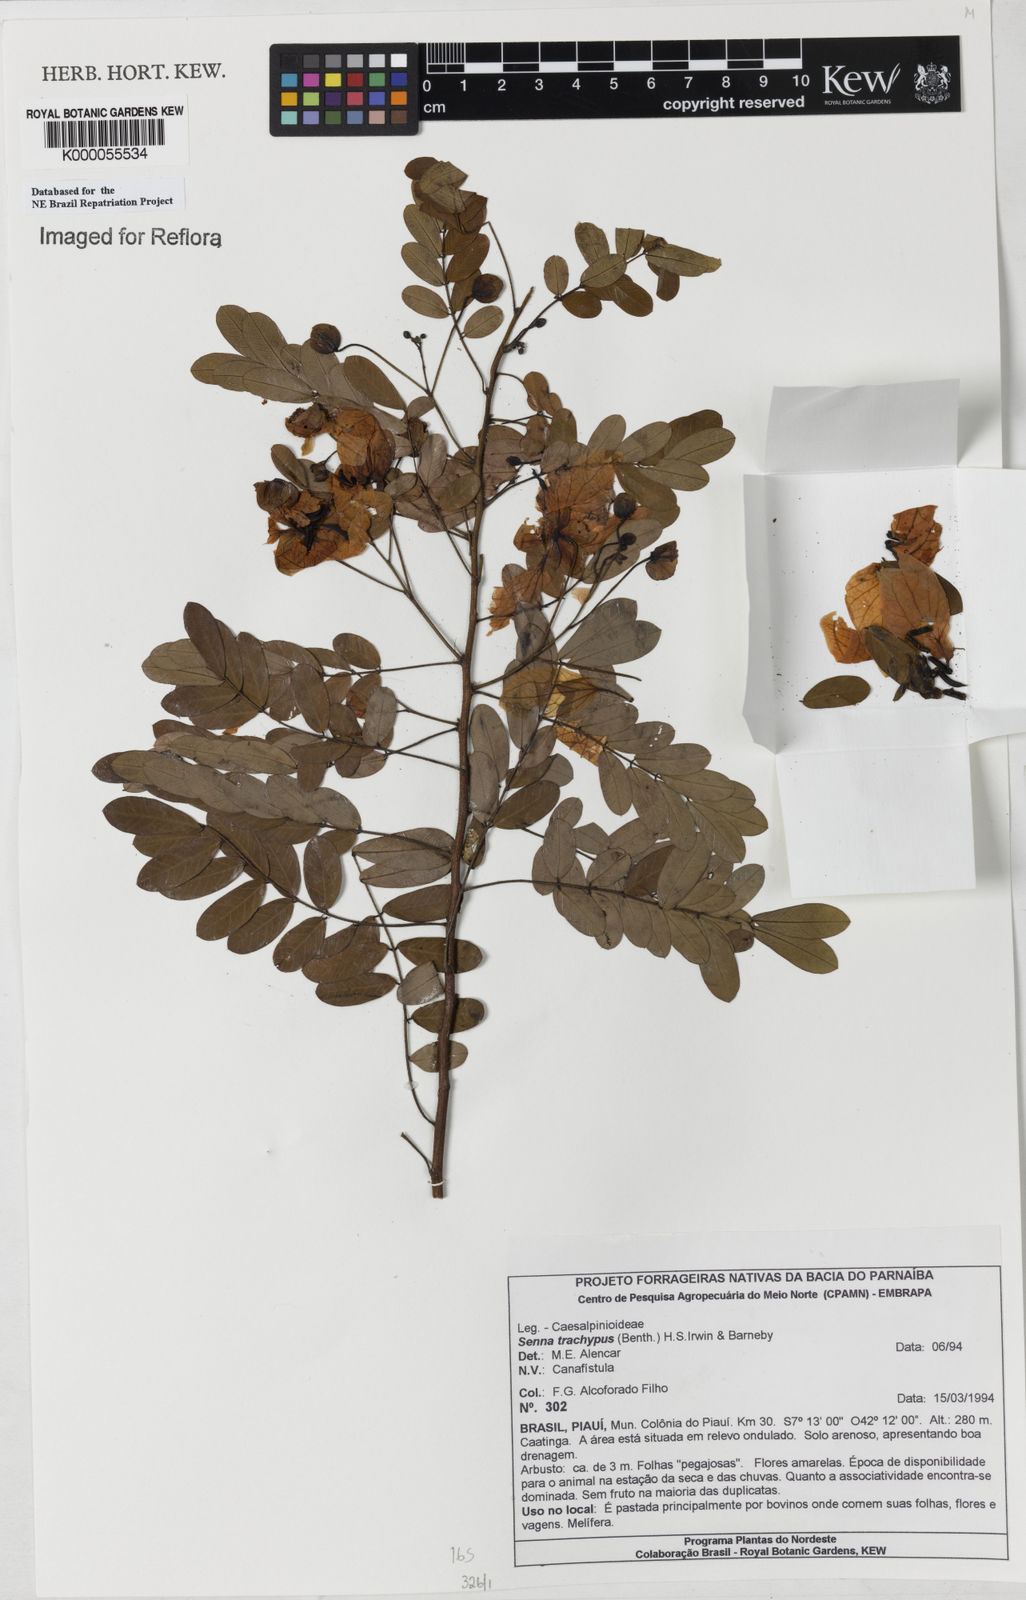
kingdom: Plantae
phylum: Tracheophyta
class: Magnoliopsida
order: Fabales
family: Fabaceae
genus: Senna
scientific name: Senna trachypus
